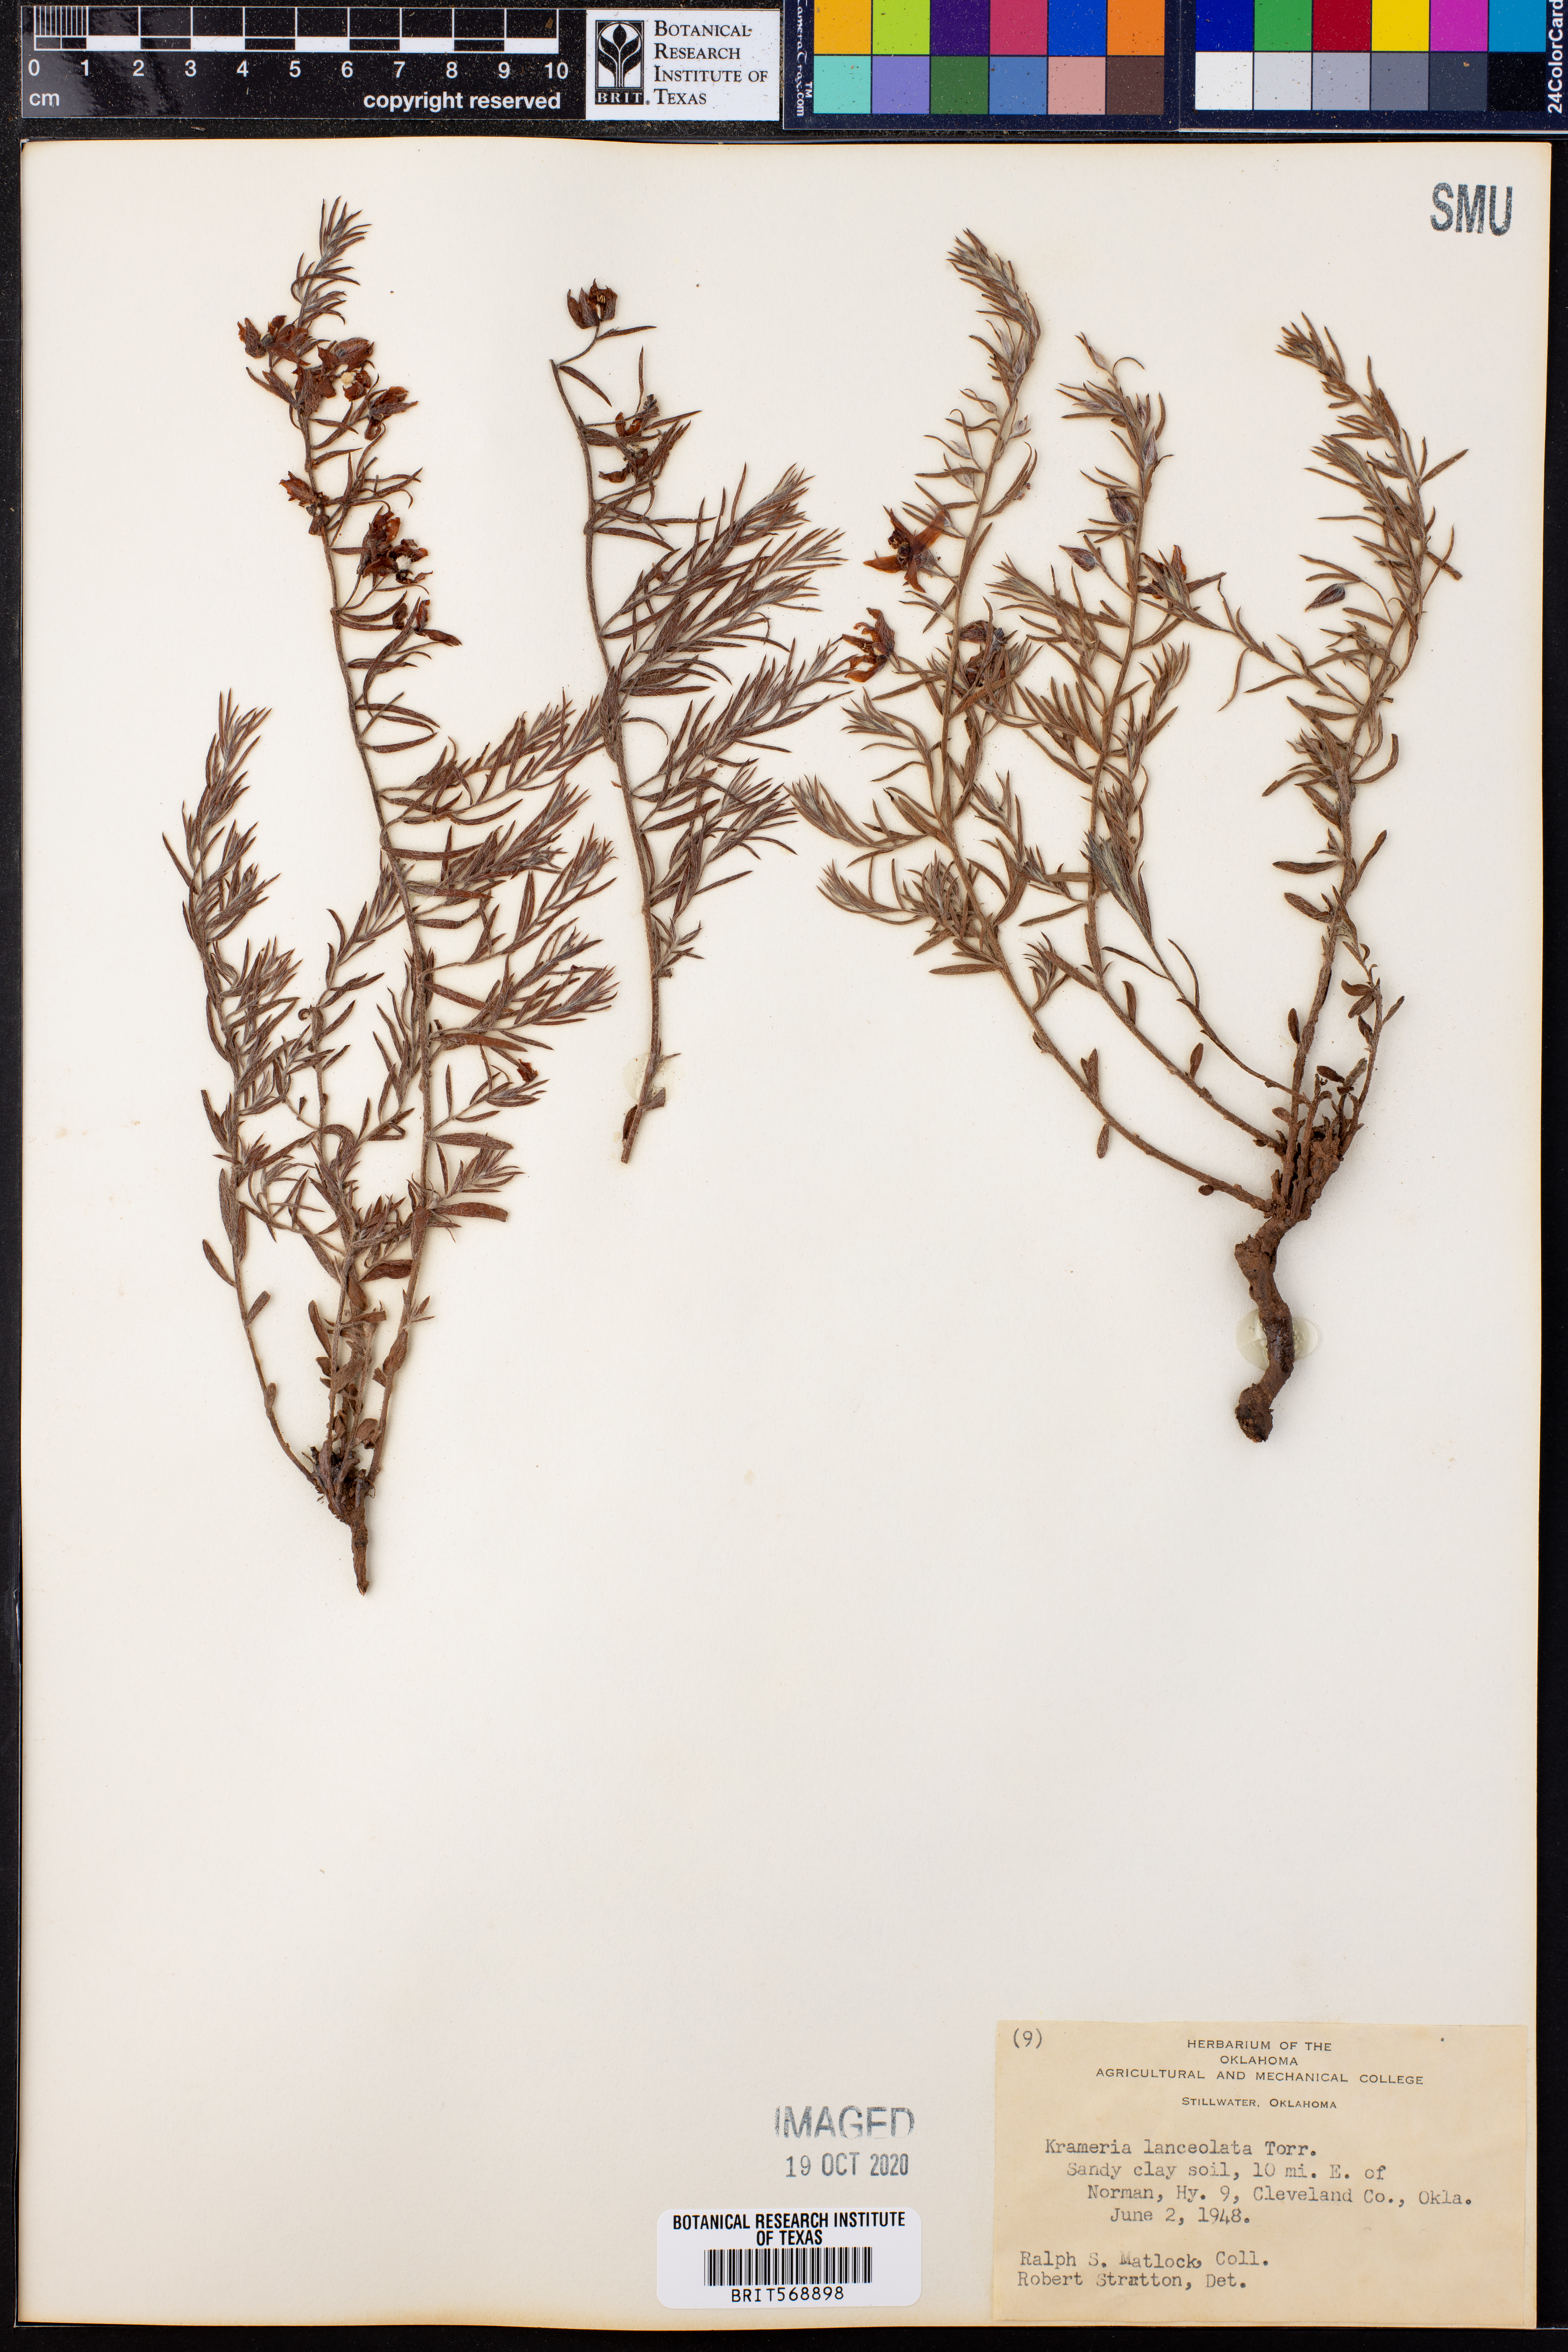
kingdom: Plantae
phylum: Tracheophyta
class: Magnoliopsida
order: Zygophyllales
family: Krameriaceae
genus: Krameria
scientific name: Krameria lanceolata
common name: Ratany
